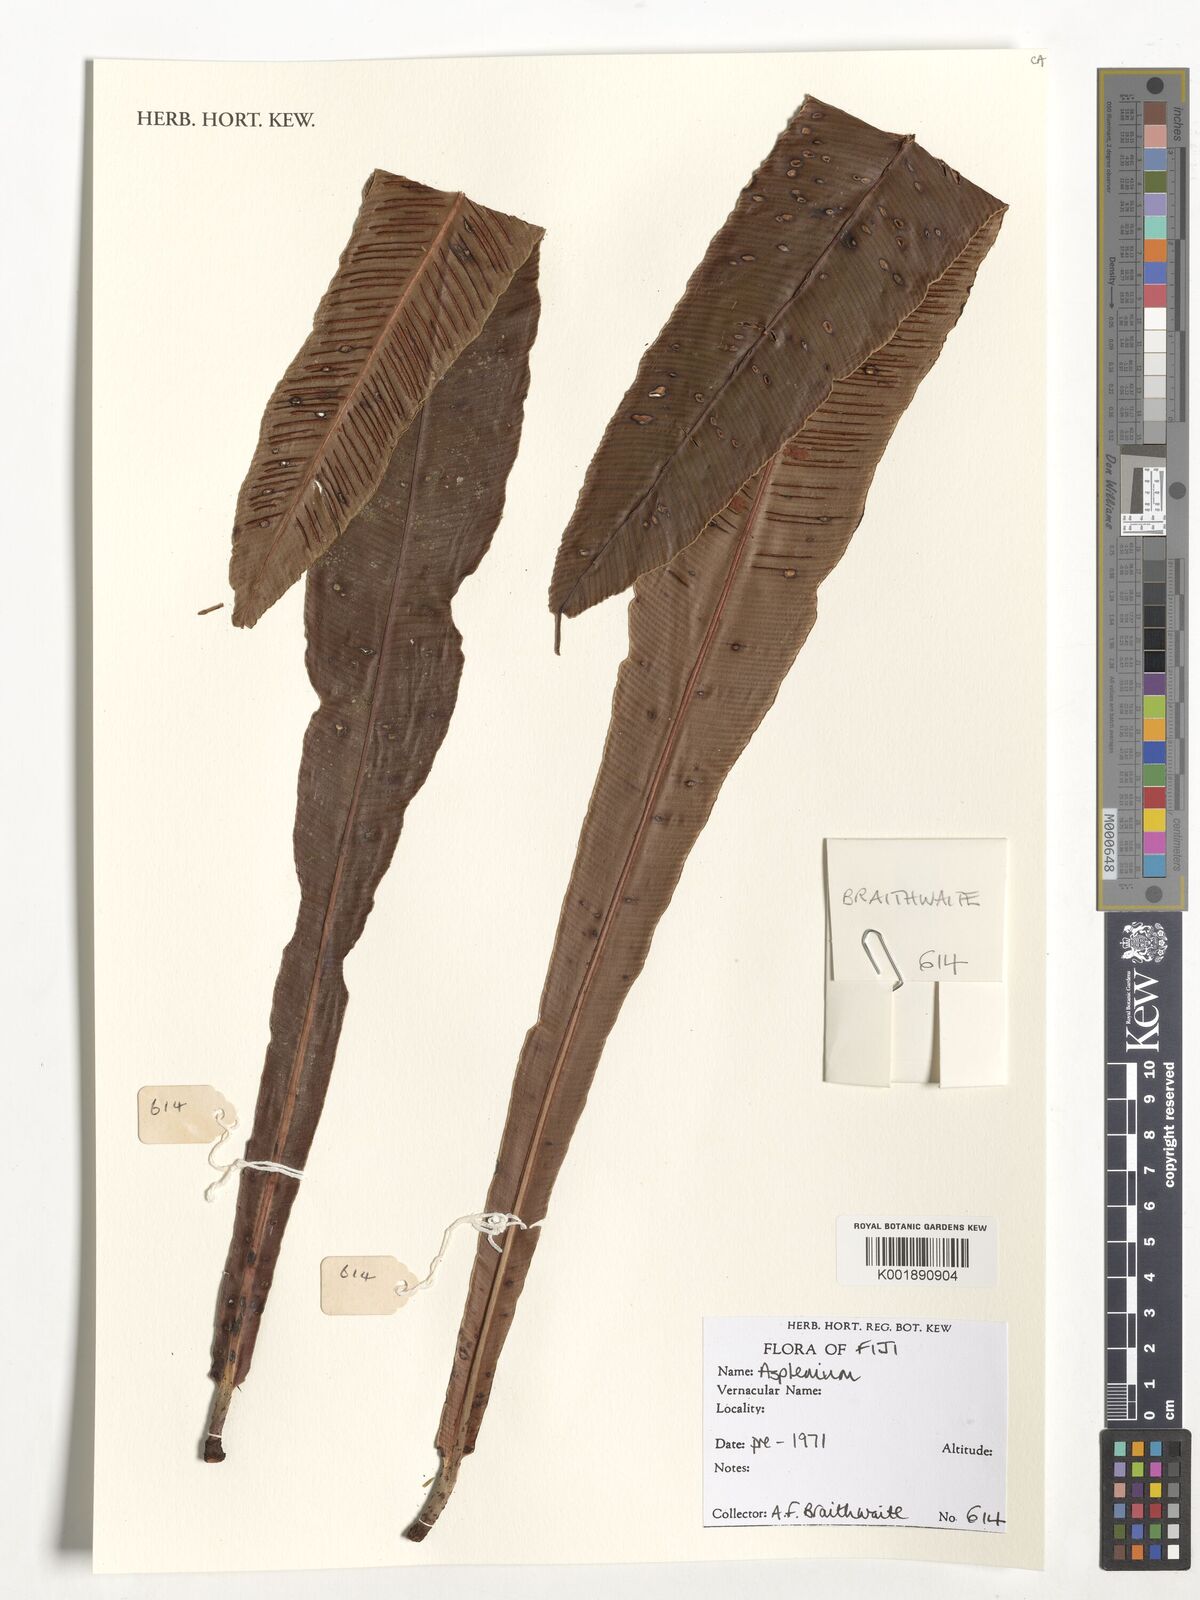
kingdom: Plantae
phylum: Tracheophyta
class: Polypodiopsida
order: Polypodiales
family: Aspleniaceae
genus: Asplenium
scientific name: Asplenium
